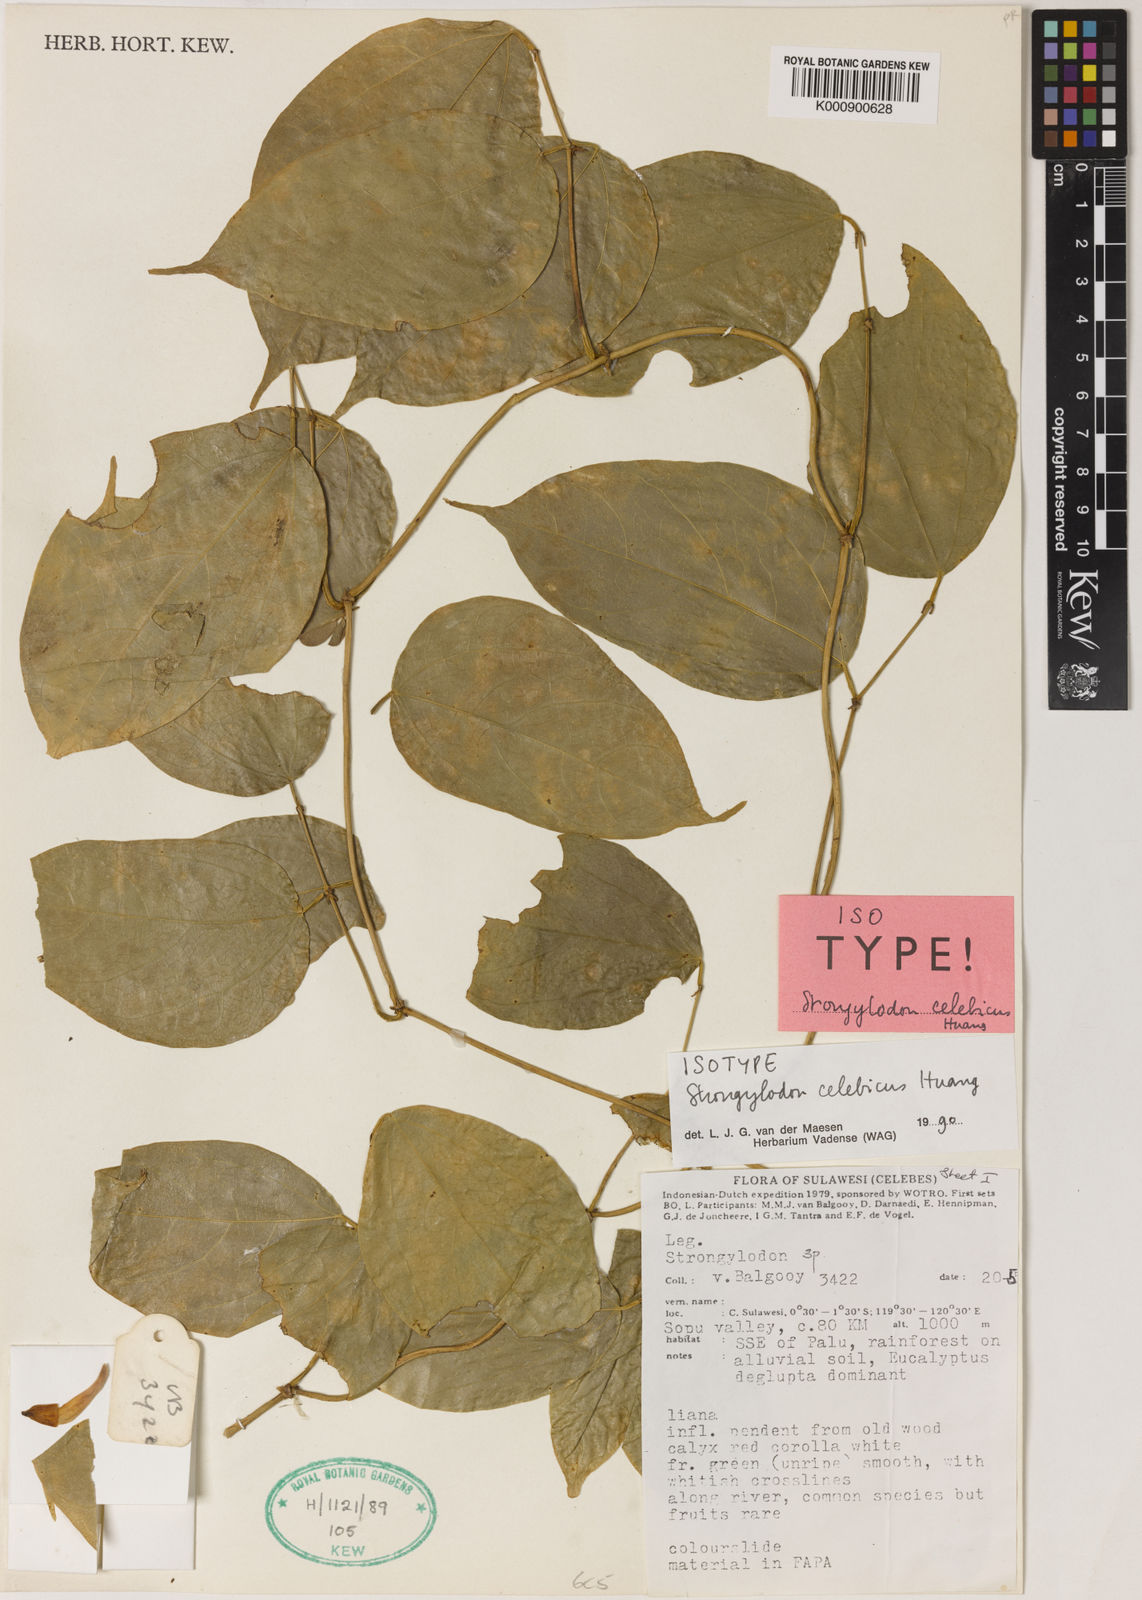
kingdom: Plantae
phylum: Tracheophyta
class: Magnoliopsida
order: Fabales
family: Fabaceae
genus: Strongylodon
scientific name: Strongylodon lucidus
